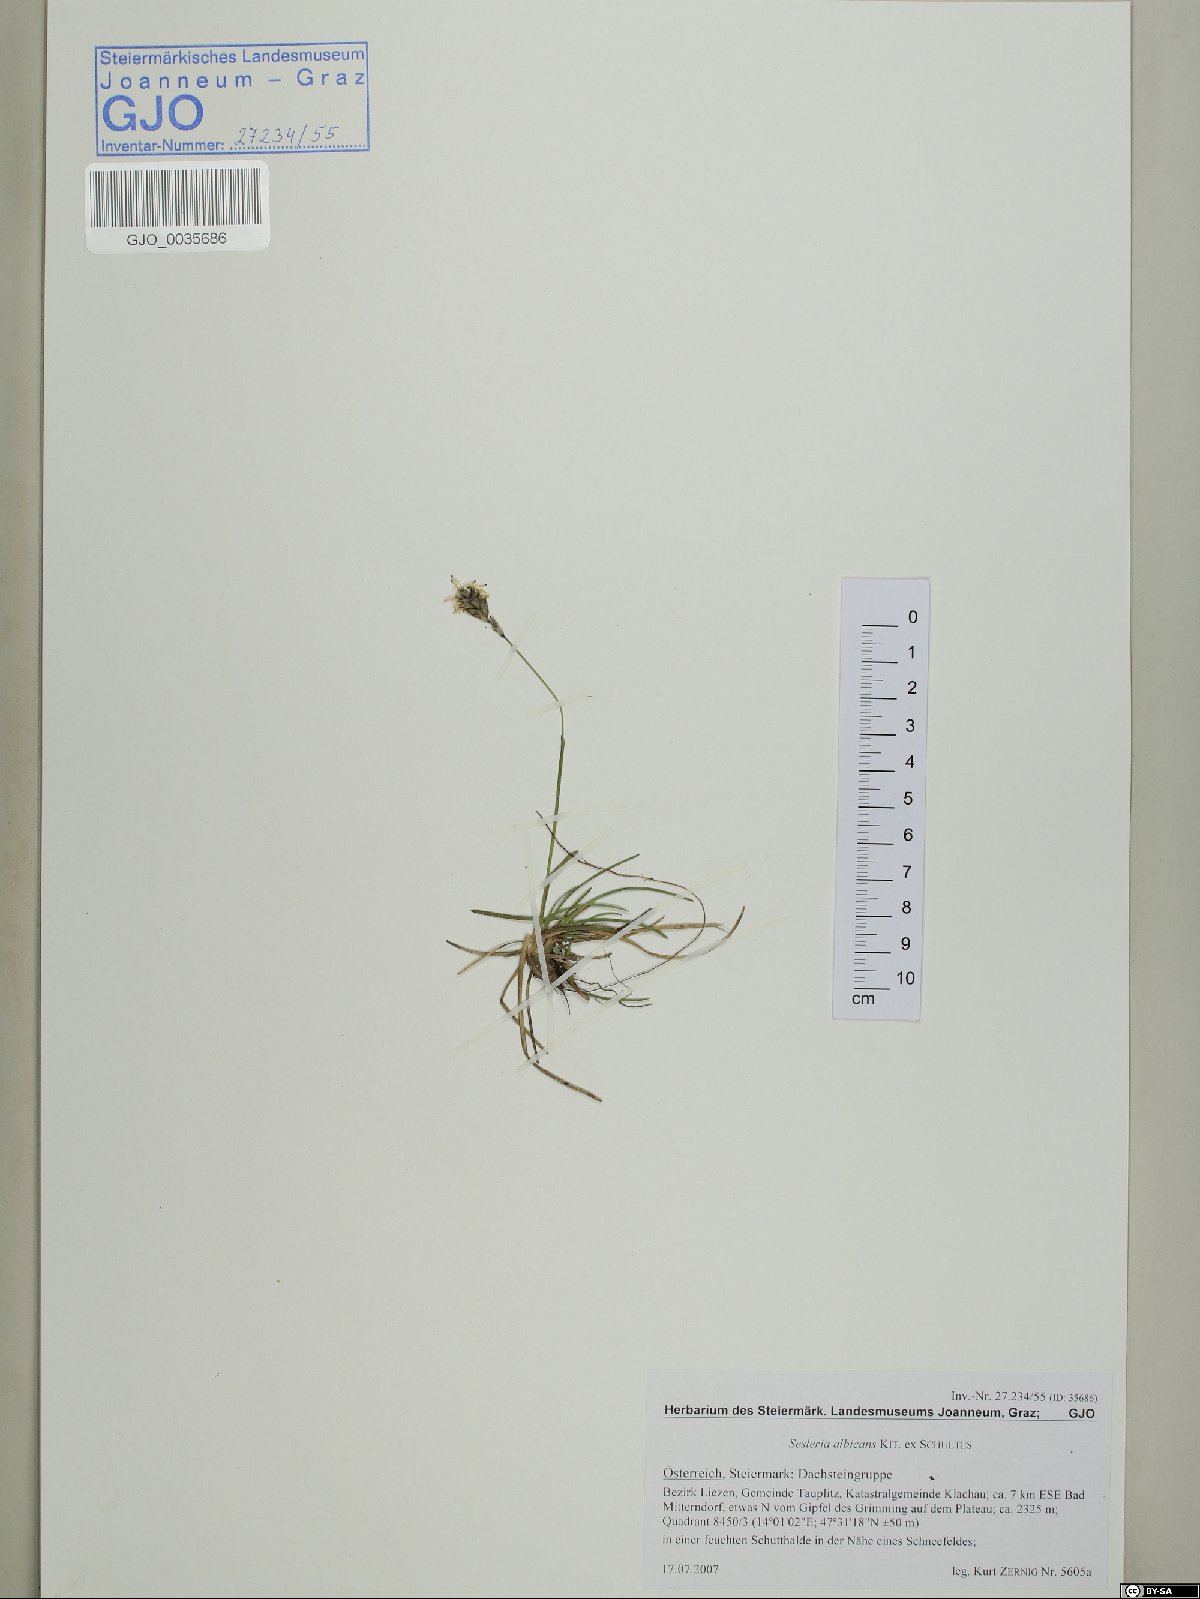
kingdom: Plantae
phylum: Tracheophyta
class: Liliopsida
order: Poales
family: Poaceae
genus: Sesleria
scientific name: Sesleria albicans
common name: Blue moor-grass
